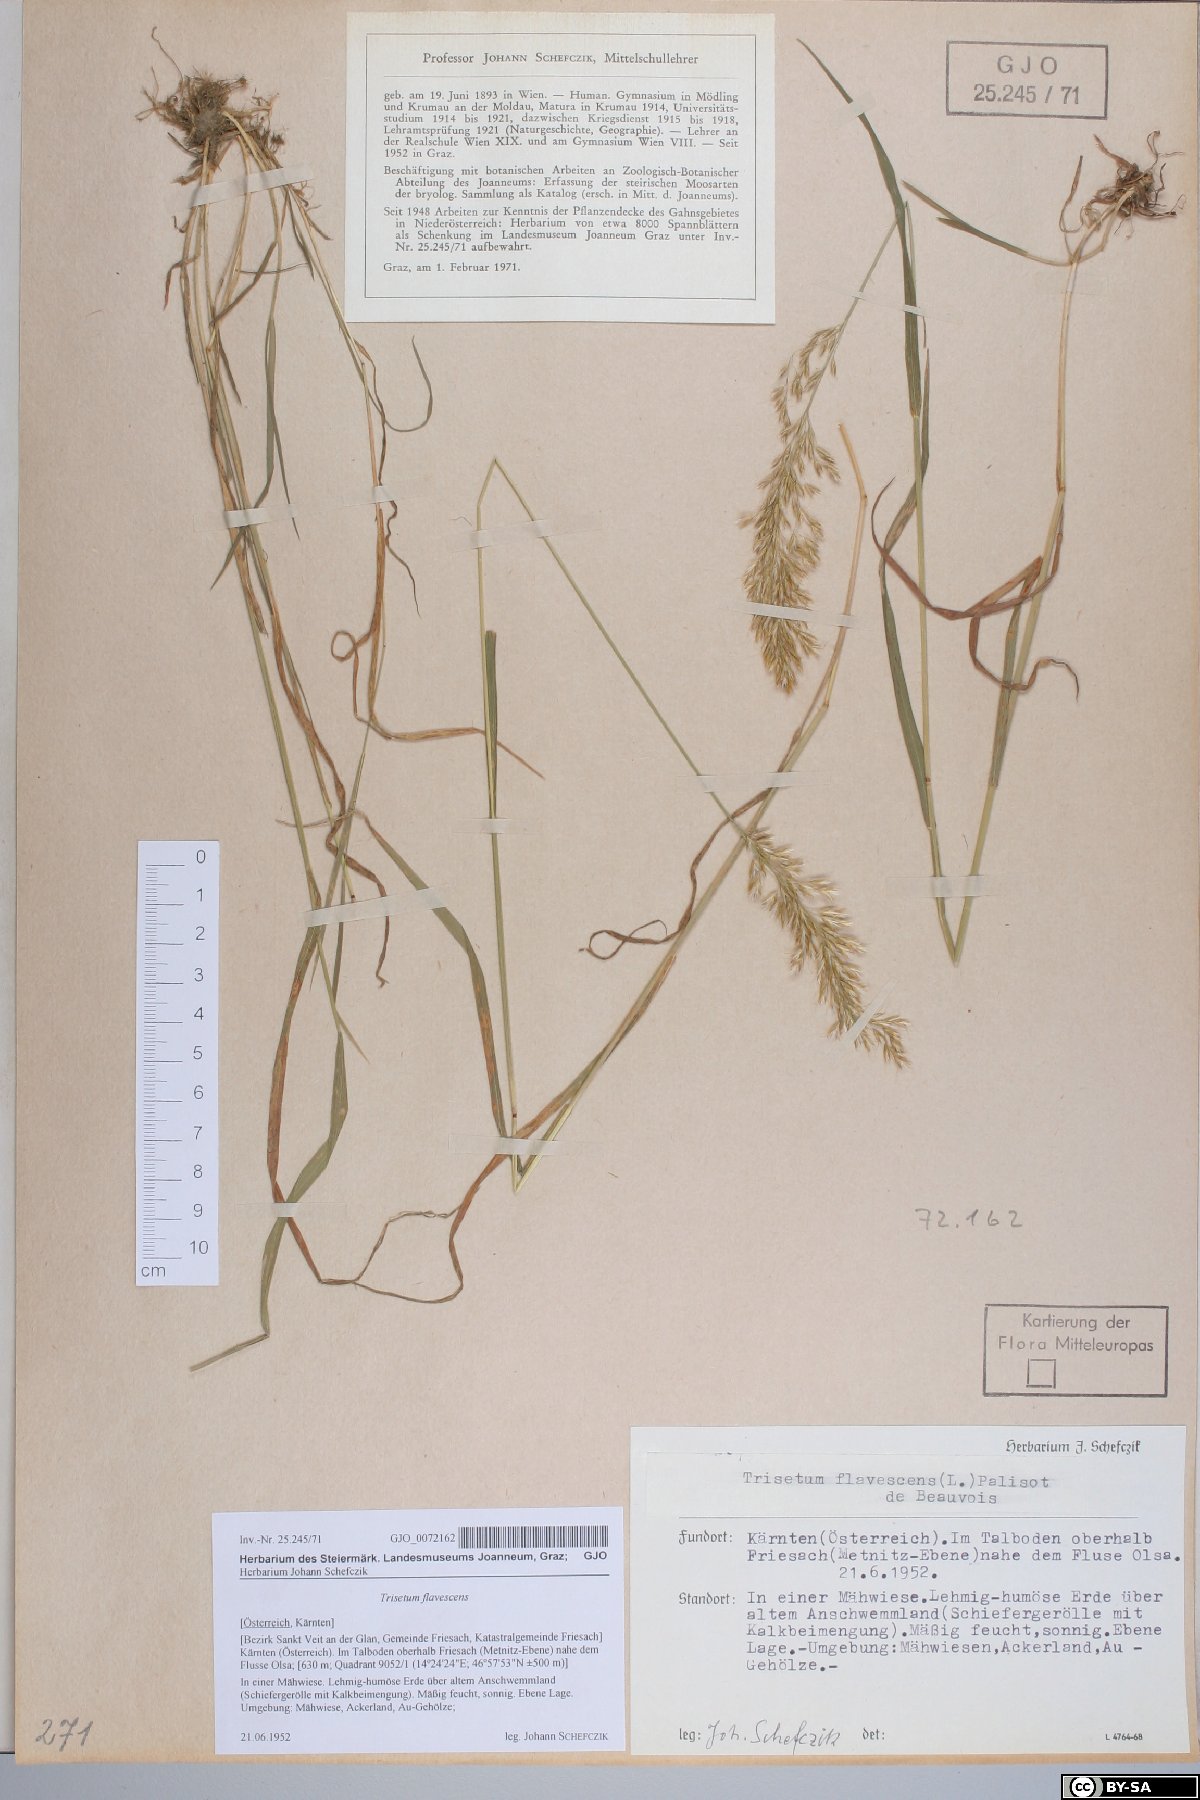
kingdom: Plantae
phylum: Tracheophyta
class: Liliopsida
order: Poales
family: Poaceae
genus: Trisetum
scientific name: Trisetum flavescens
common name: Yellow oat-grass
